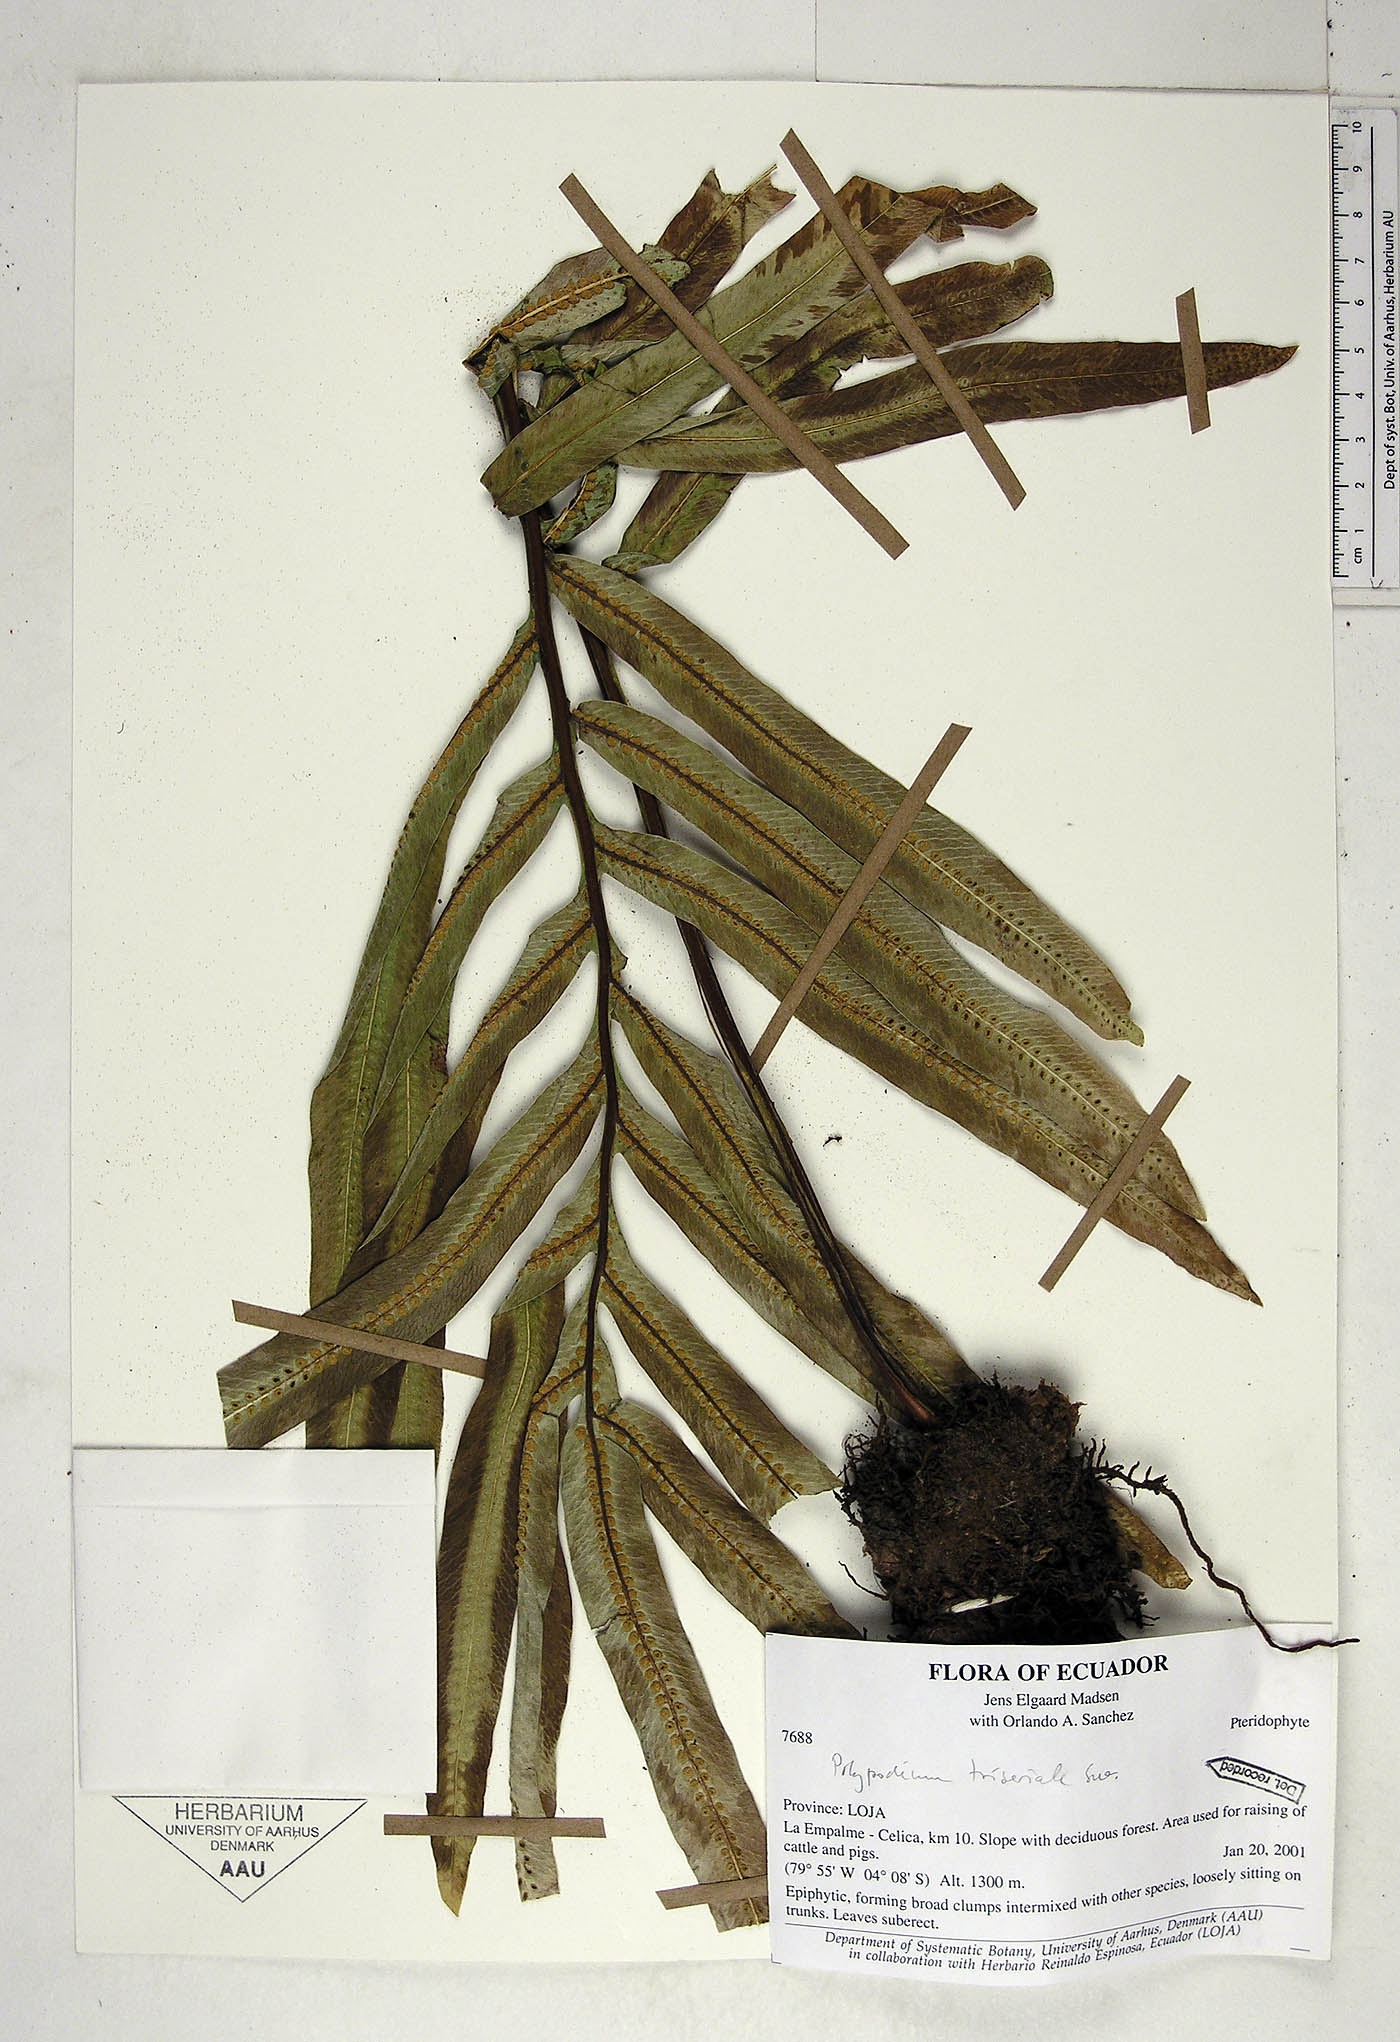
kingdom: Plantae
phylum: Tracheophyta
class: Polypodiopsida
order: Polypodiales
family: Polypodiaceae
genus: Serpocaulon
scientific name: Serpocaulon triseriale
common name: Angle-vein fern
